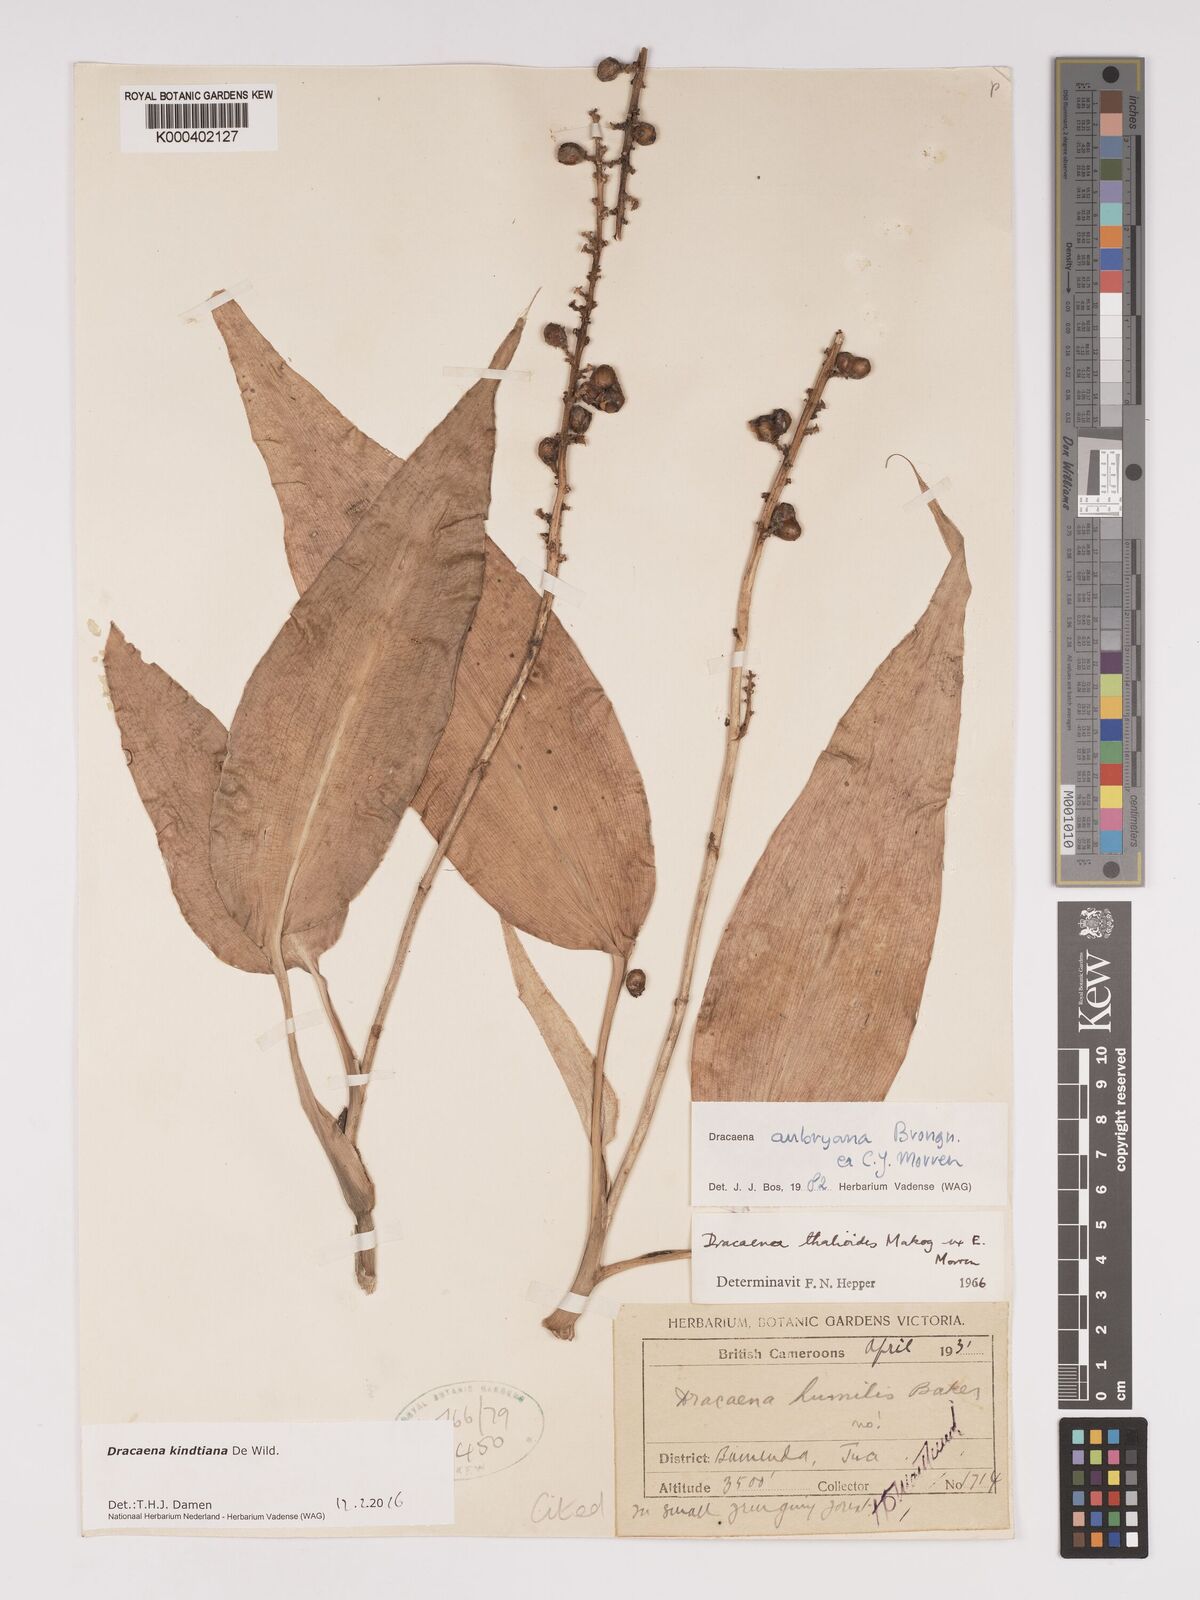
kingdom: Plantae
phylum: Tracheophyta
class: Liliopsida
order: Asparagales
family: Asparagaceae
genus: Dracaena
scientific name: Dracaena kindtiana
